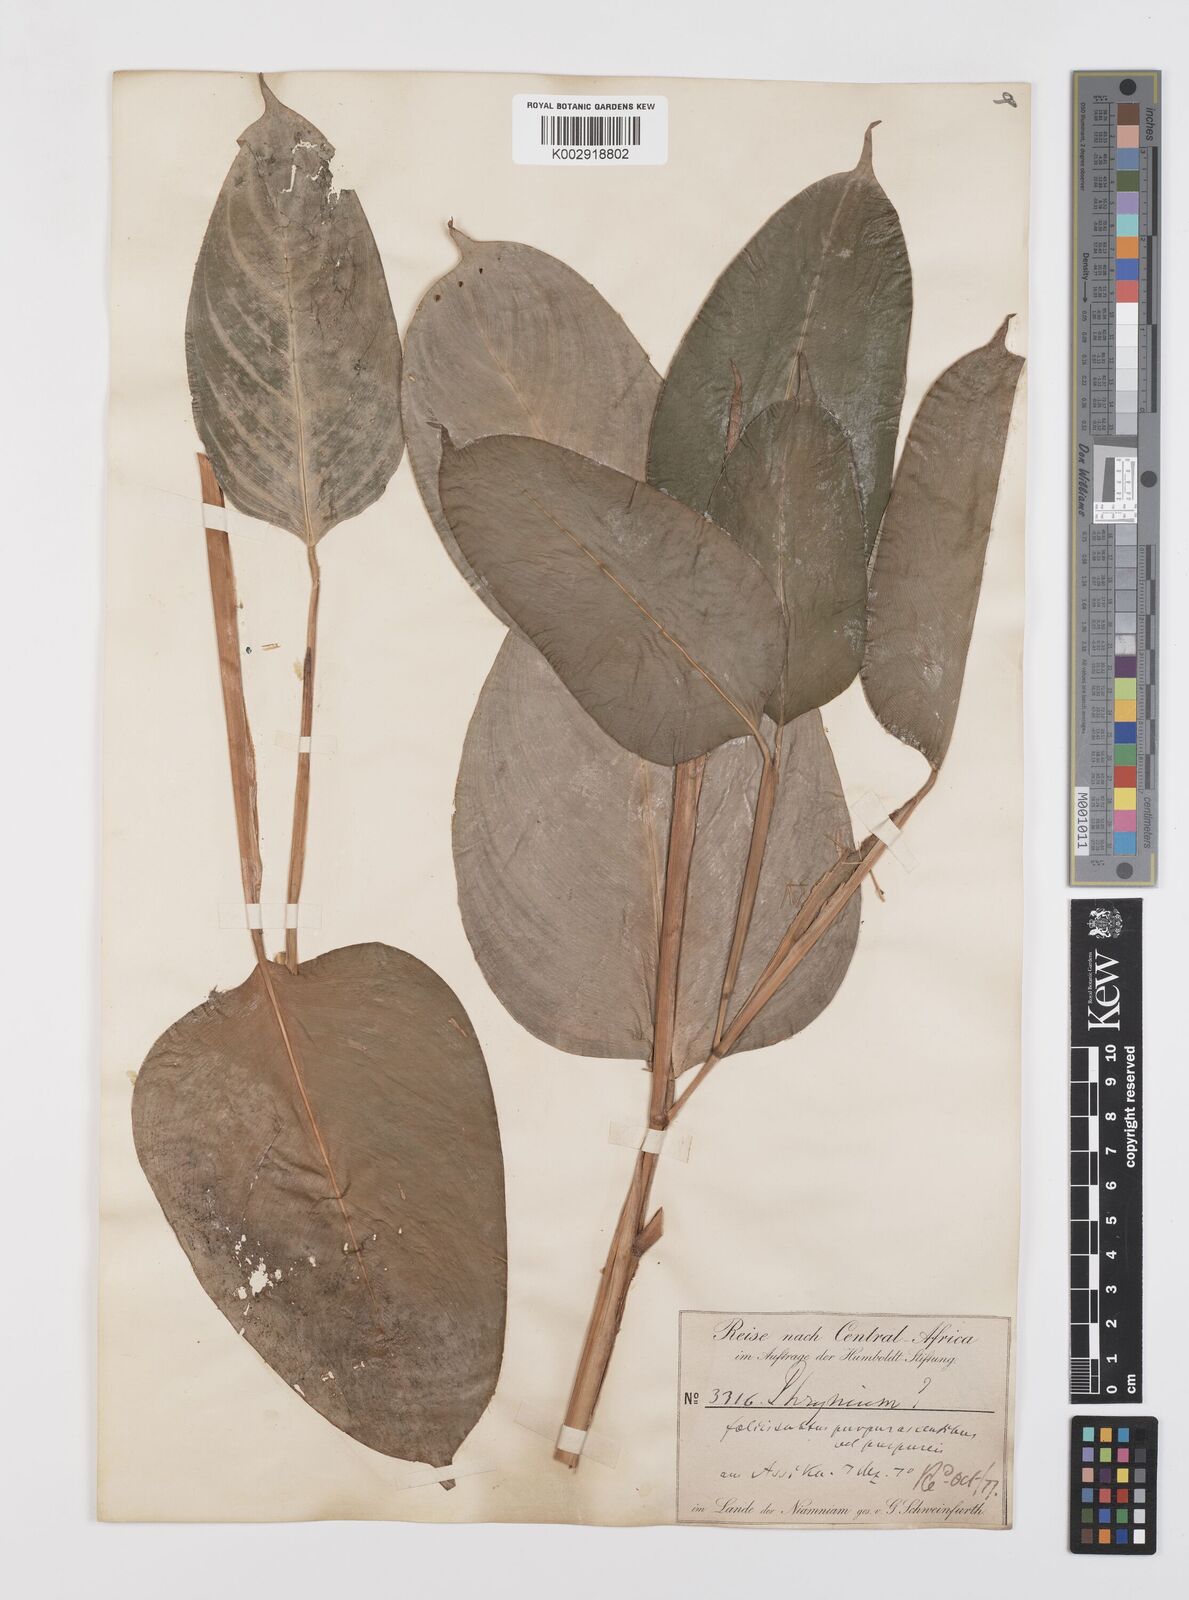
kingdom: Plantae
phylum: Tracheophyta
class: Liliopsida
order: Zingiberales
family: Marantaceae
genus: Sarcophrynium
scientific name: Sarcophrynium
